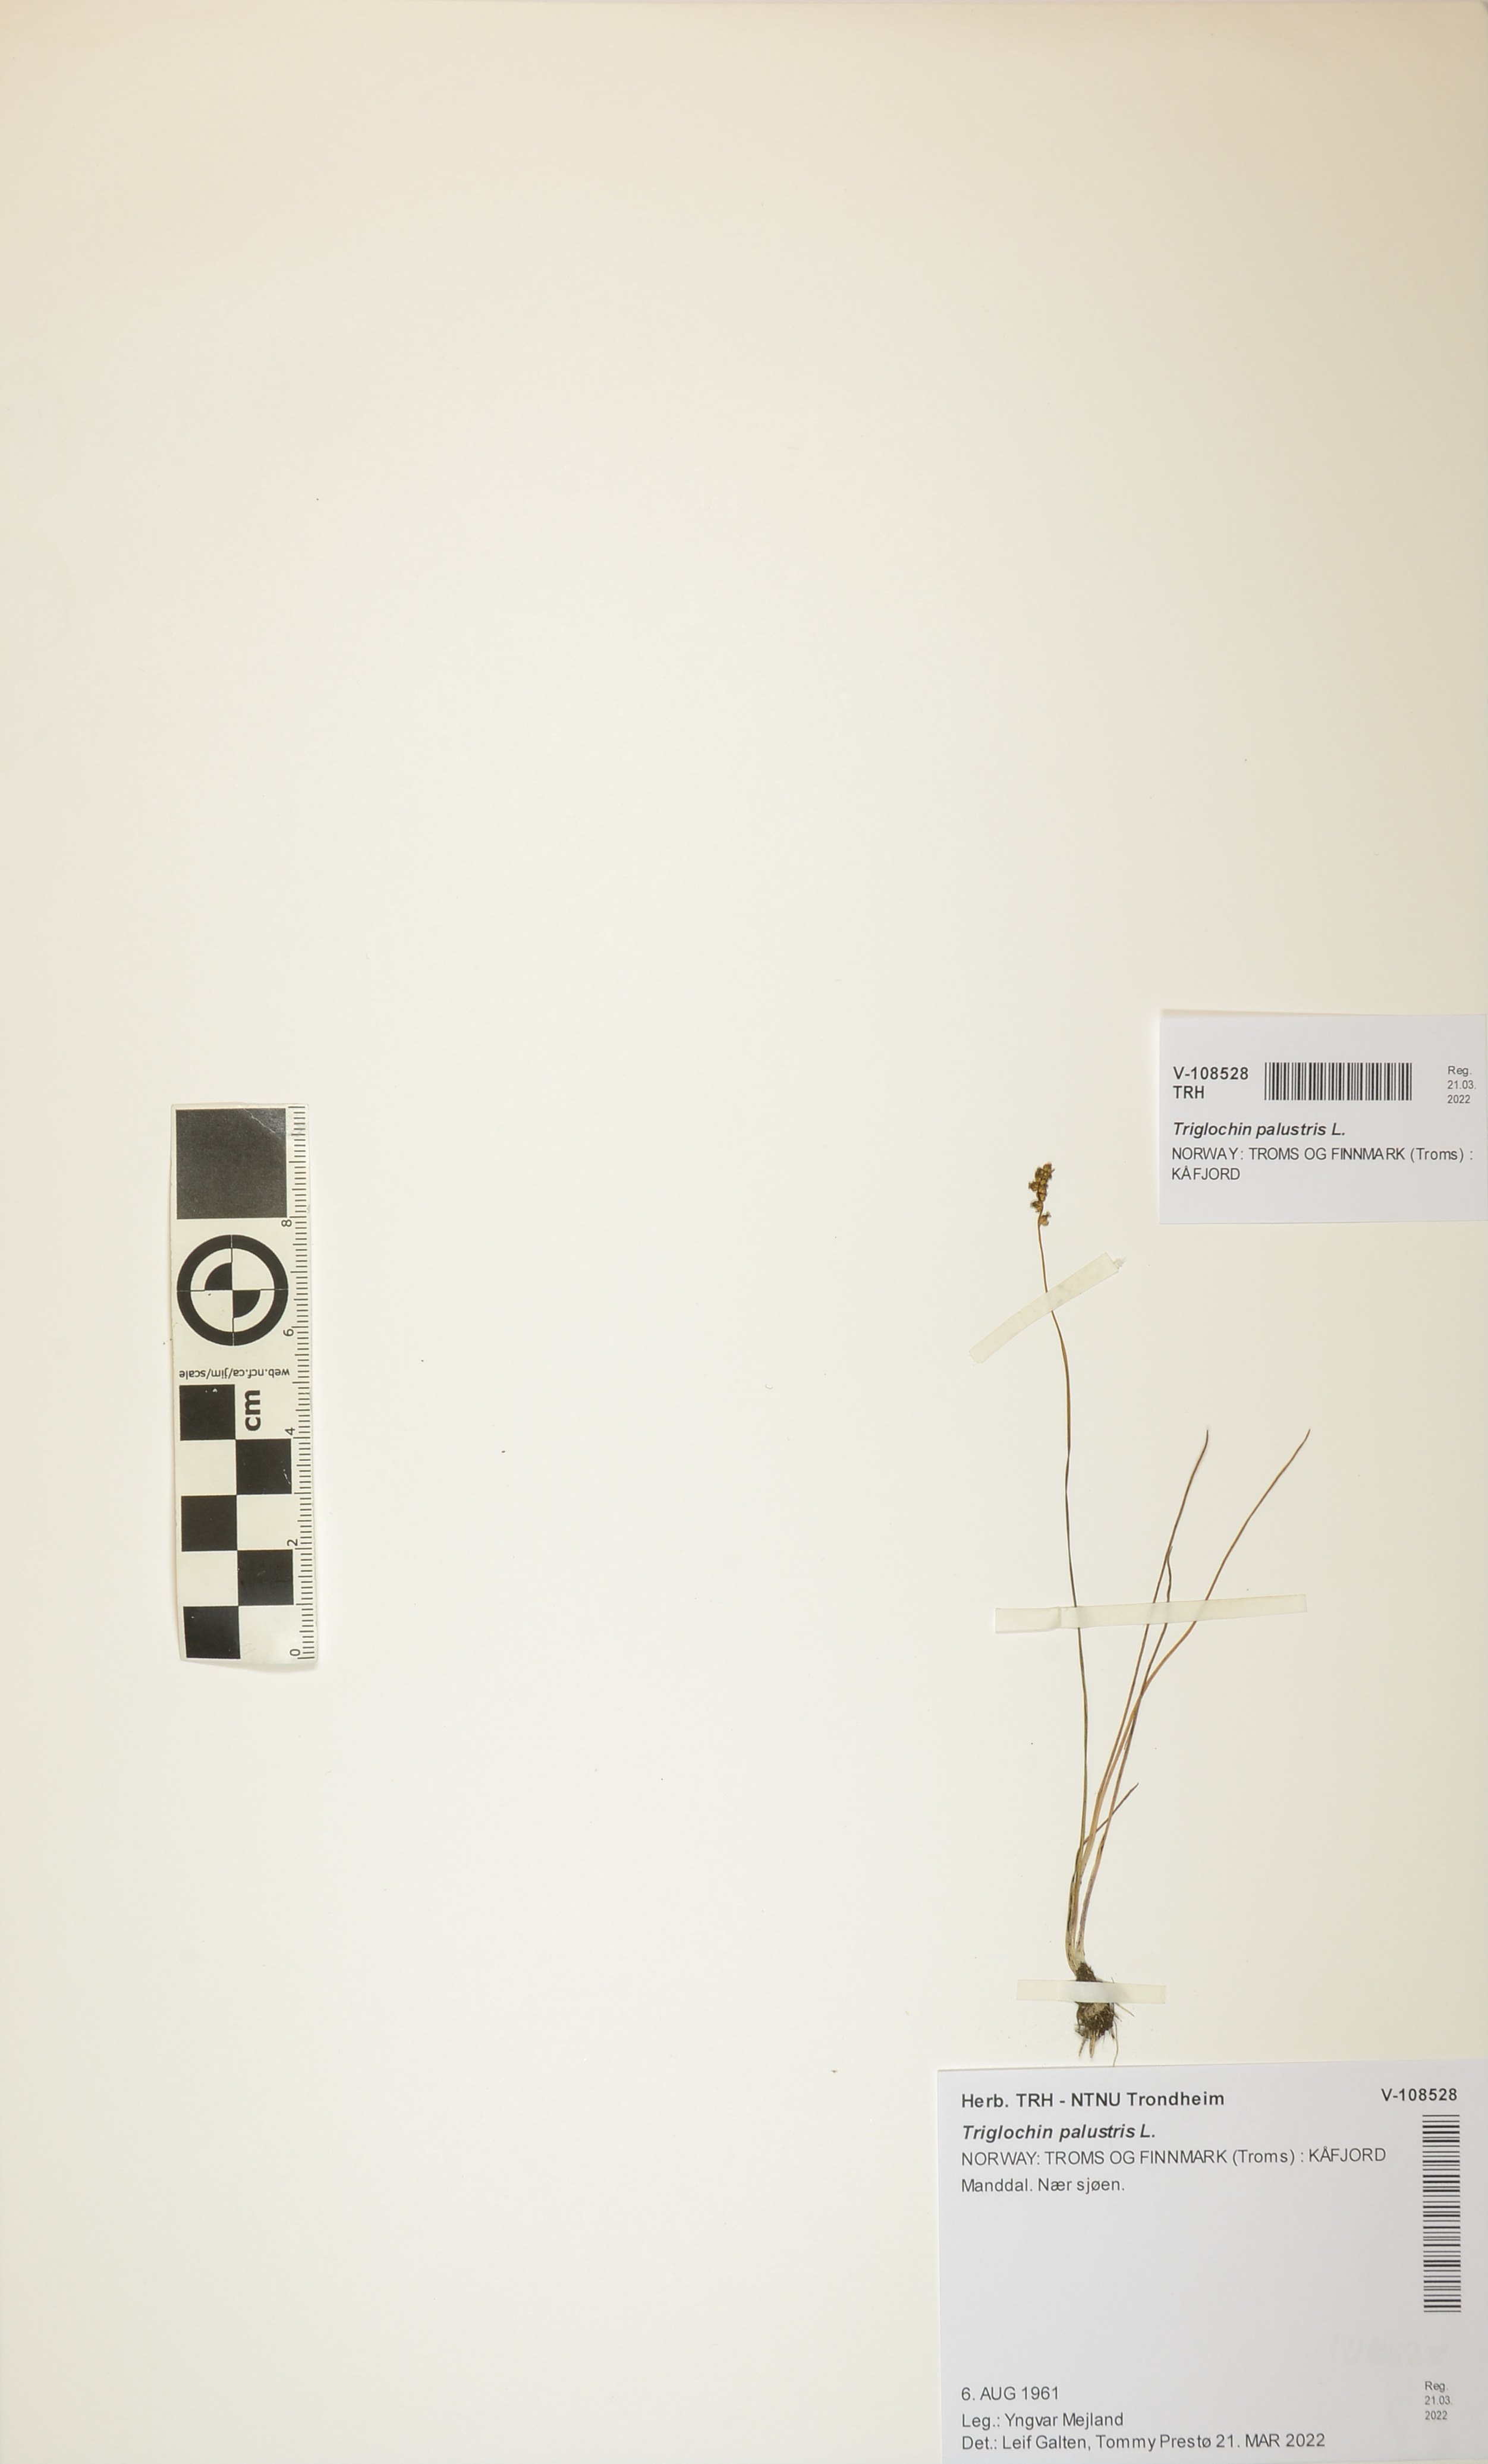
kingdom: Plantae
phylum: Tracheophyta
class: Liliopsida
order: Alismatales
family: Juncaginaceae
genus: Triglochin
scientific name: Triglochin palustris
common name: Marsh arrowgrass
